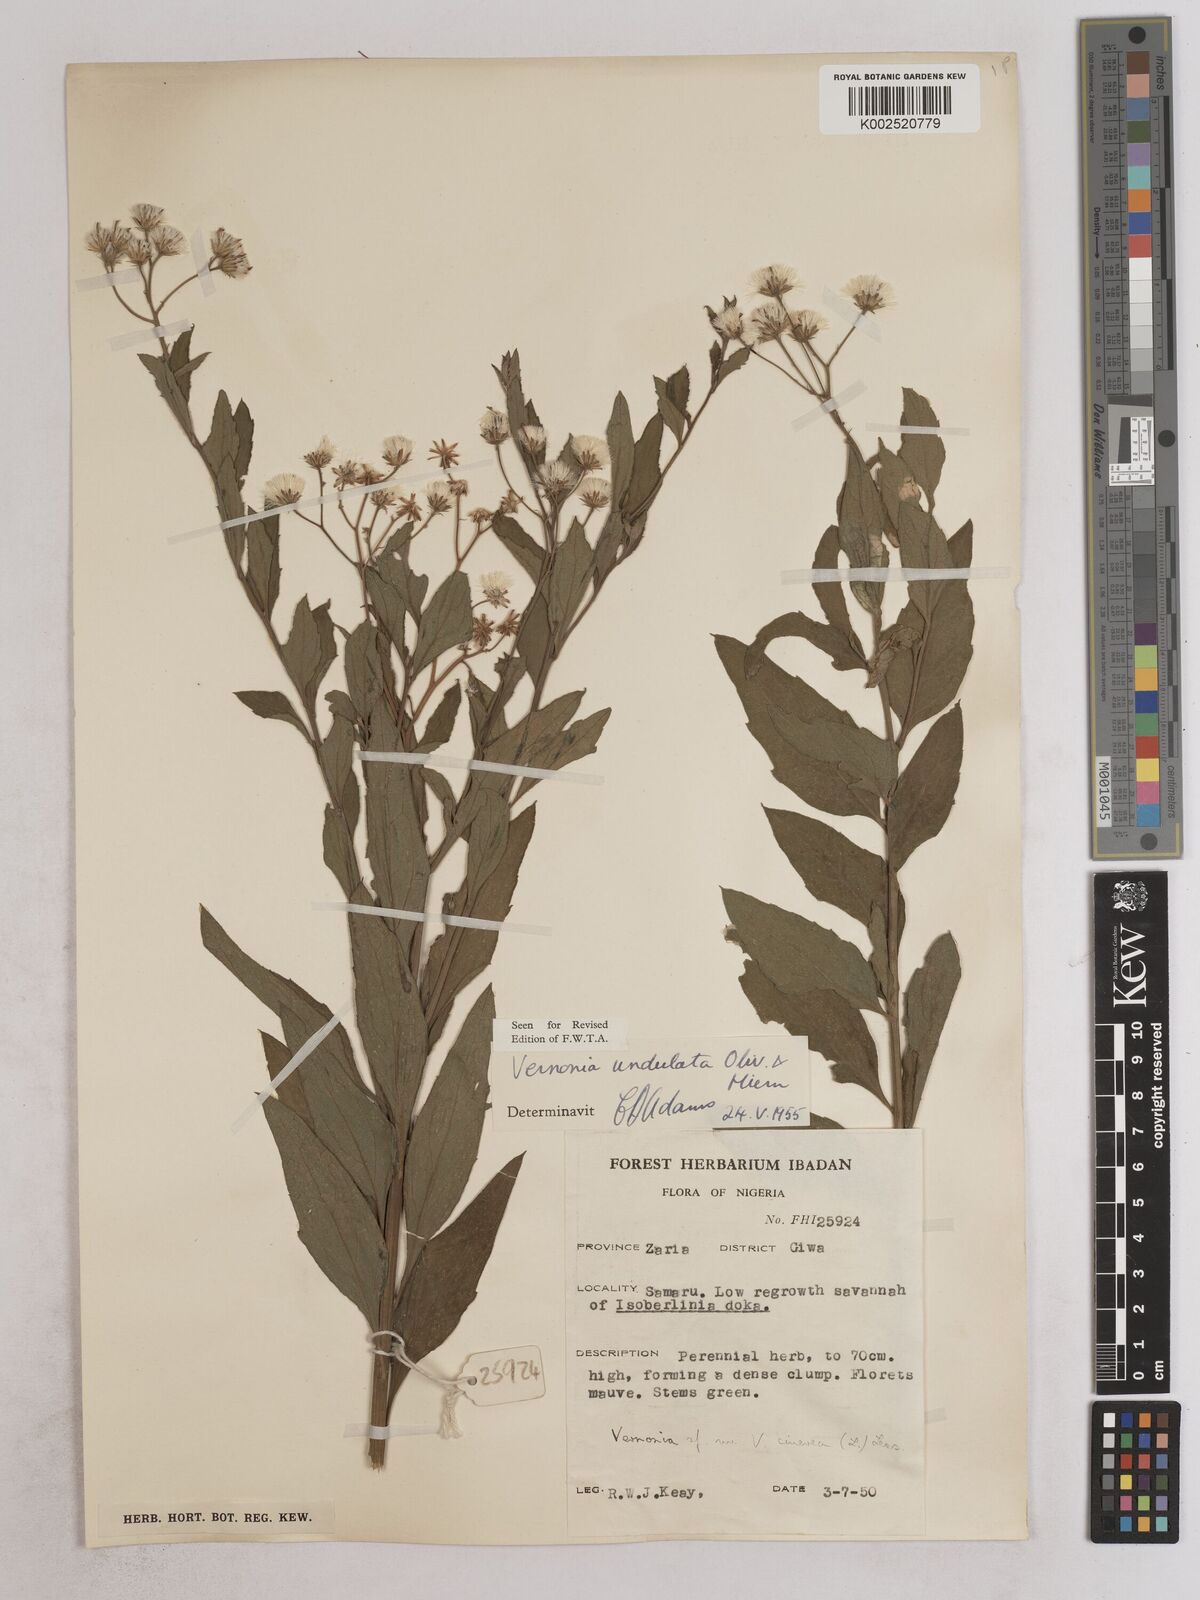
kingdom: Plantae
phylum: Tracheophyta
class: Magnoliopsida
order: Asterales
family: Asteraceae
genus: Vernonia
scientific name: Vernonia golungensis
